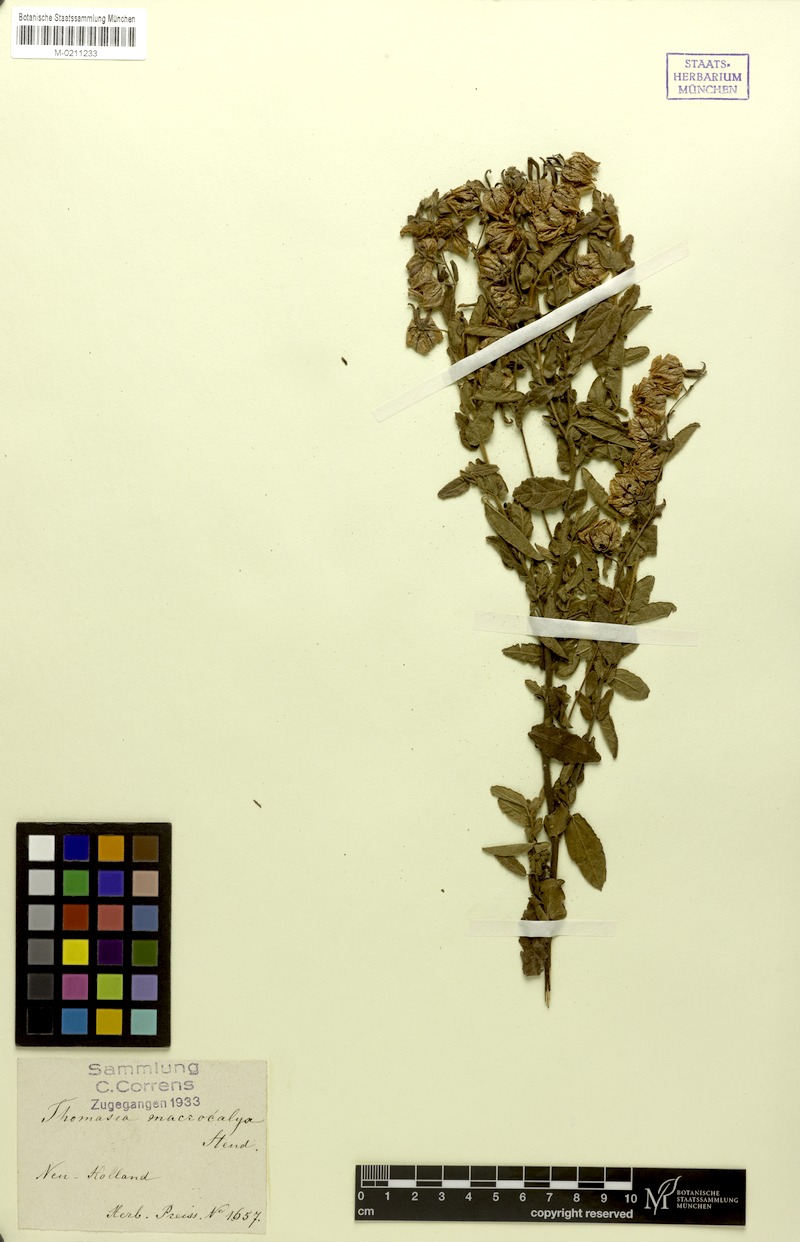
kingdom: Plantae
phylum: Tracheophyta
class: Magnoliopsida
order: Malvales
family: Malvaceae
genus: Thomasia
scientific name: Thomasia macrocalyx
